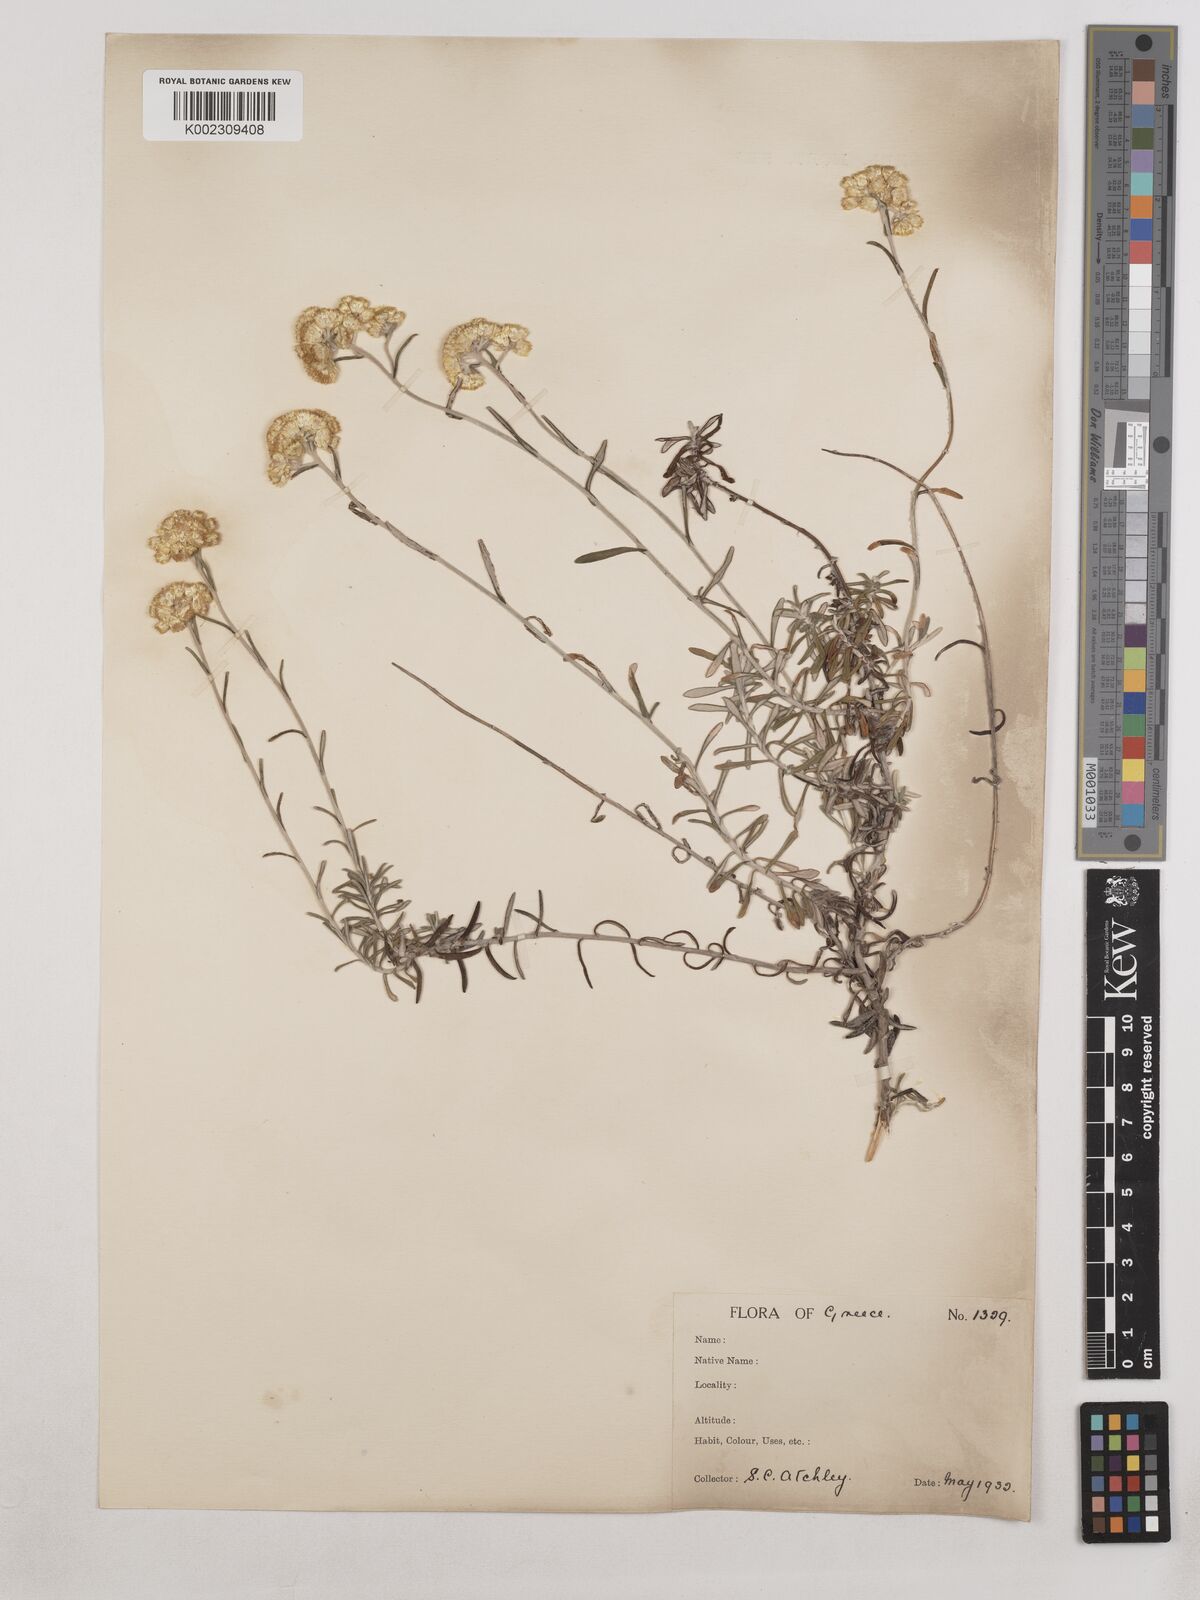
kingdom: Plantae
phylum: Tracheophyta
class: Magnoliopsida
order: Asterales
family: Asteraceae
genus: Helichrysum
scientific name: Helichrysum stoechas
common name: Goldilocks
